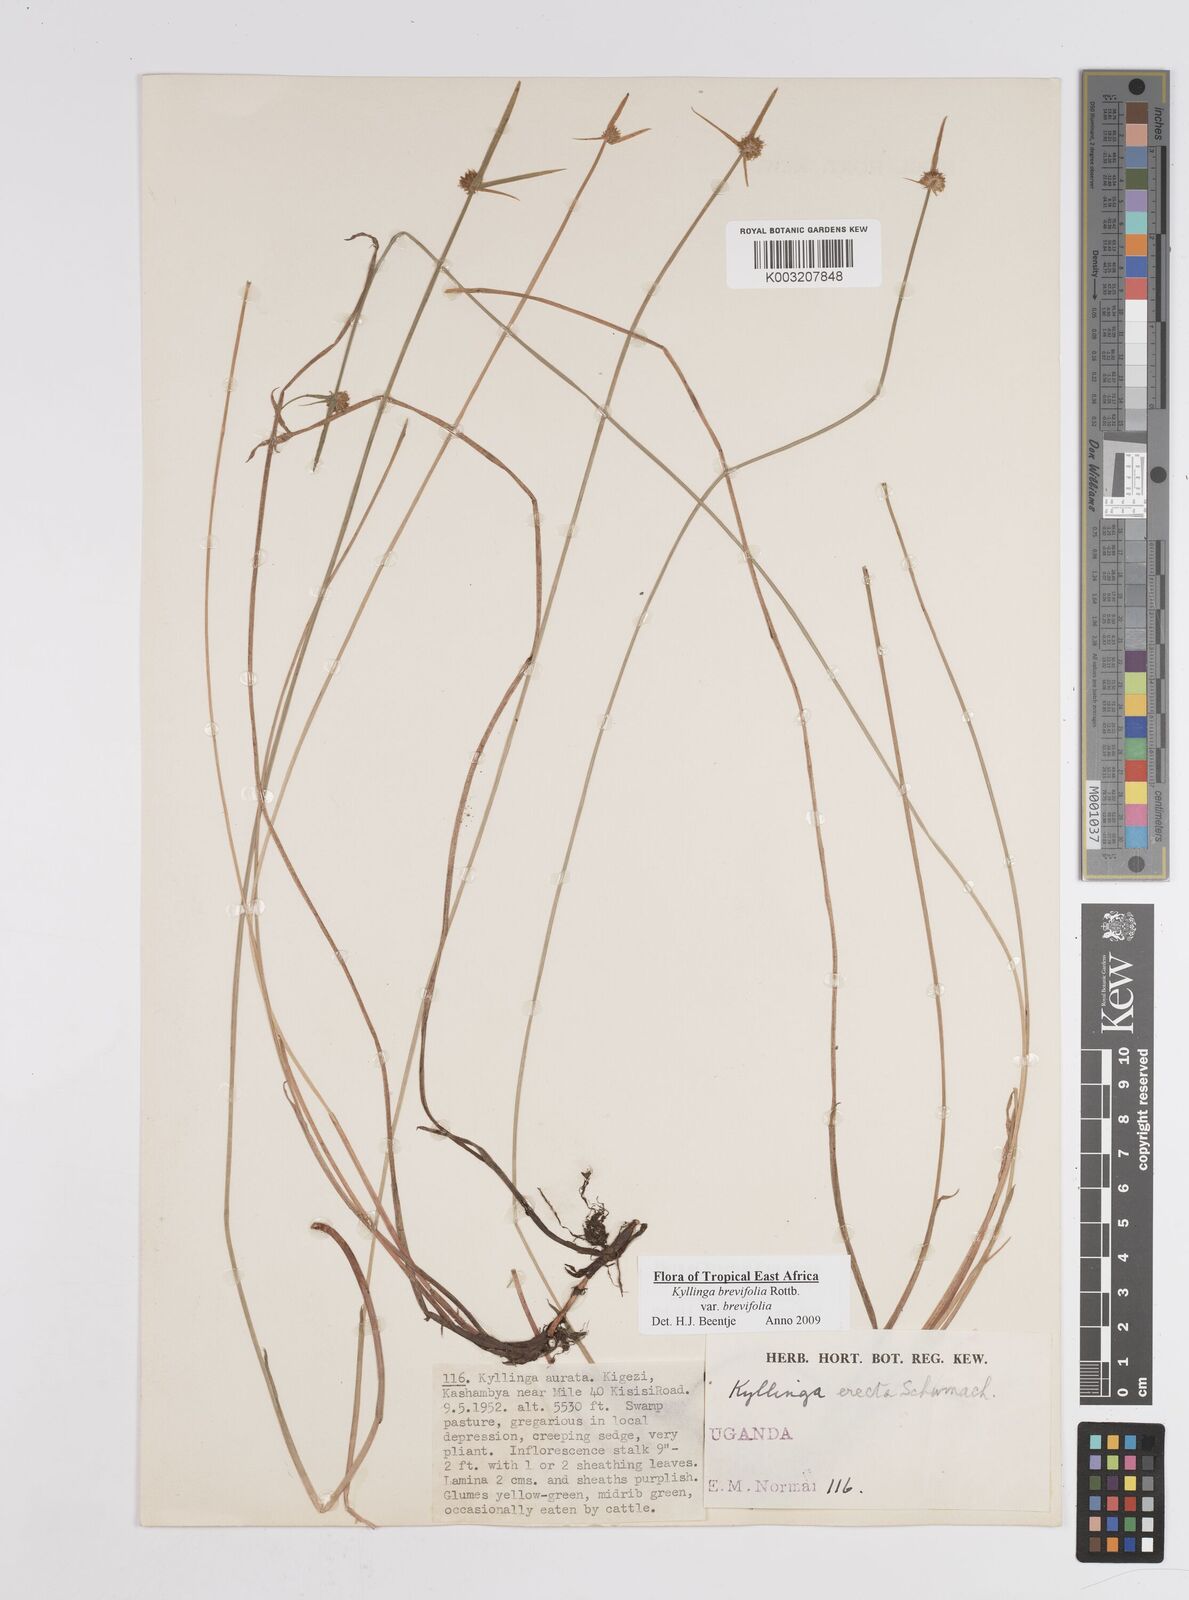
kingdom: Plantae
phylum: Tracheophyta
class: Liliopsida
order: Poales
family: Cyperaceae
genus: Cyperus
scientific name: Cyperus erectus
